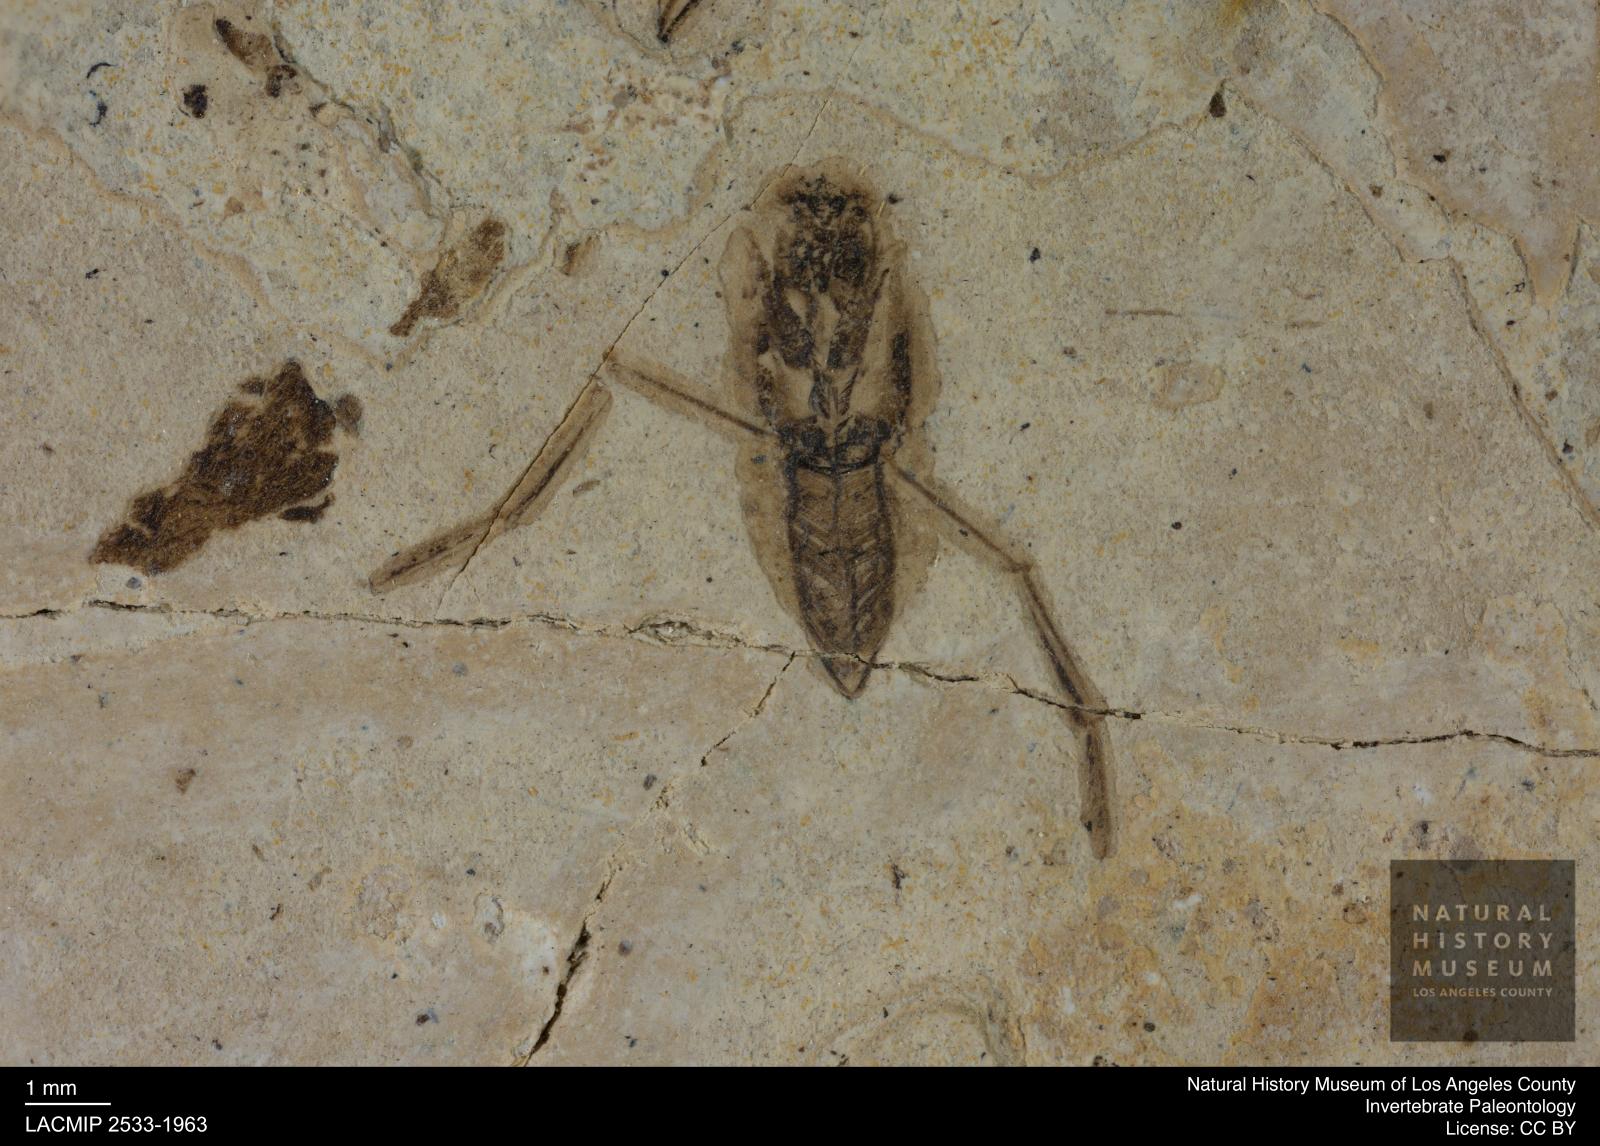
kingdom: Animalia
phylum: Arthropoda
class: Insecta
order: Hemiptera
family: Notonectidae
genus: Anisops
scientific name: Anisops Notonecta deichmuelleri
